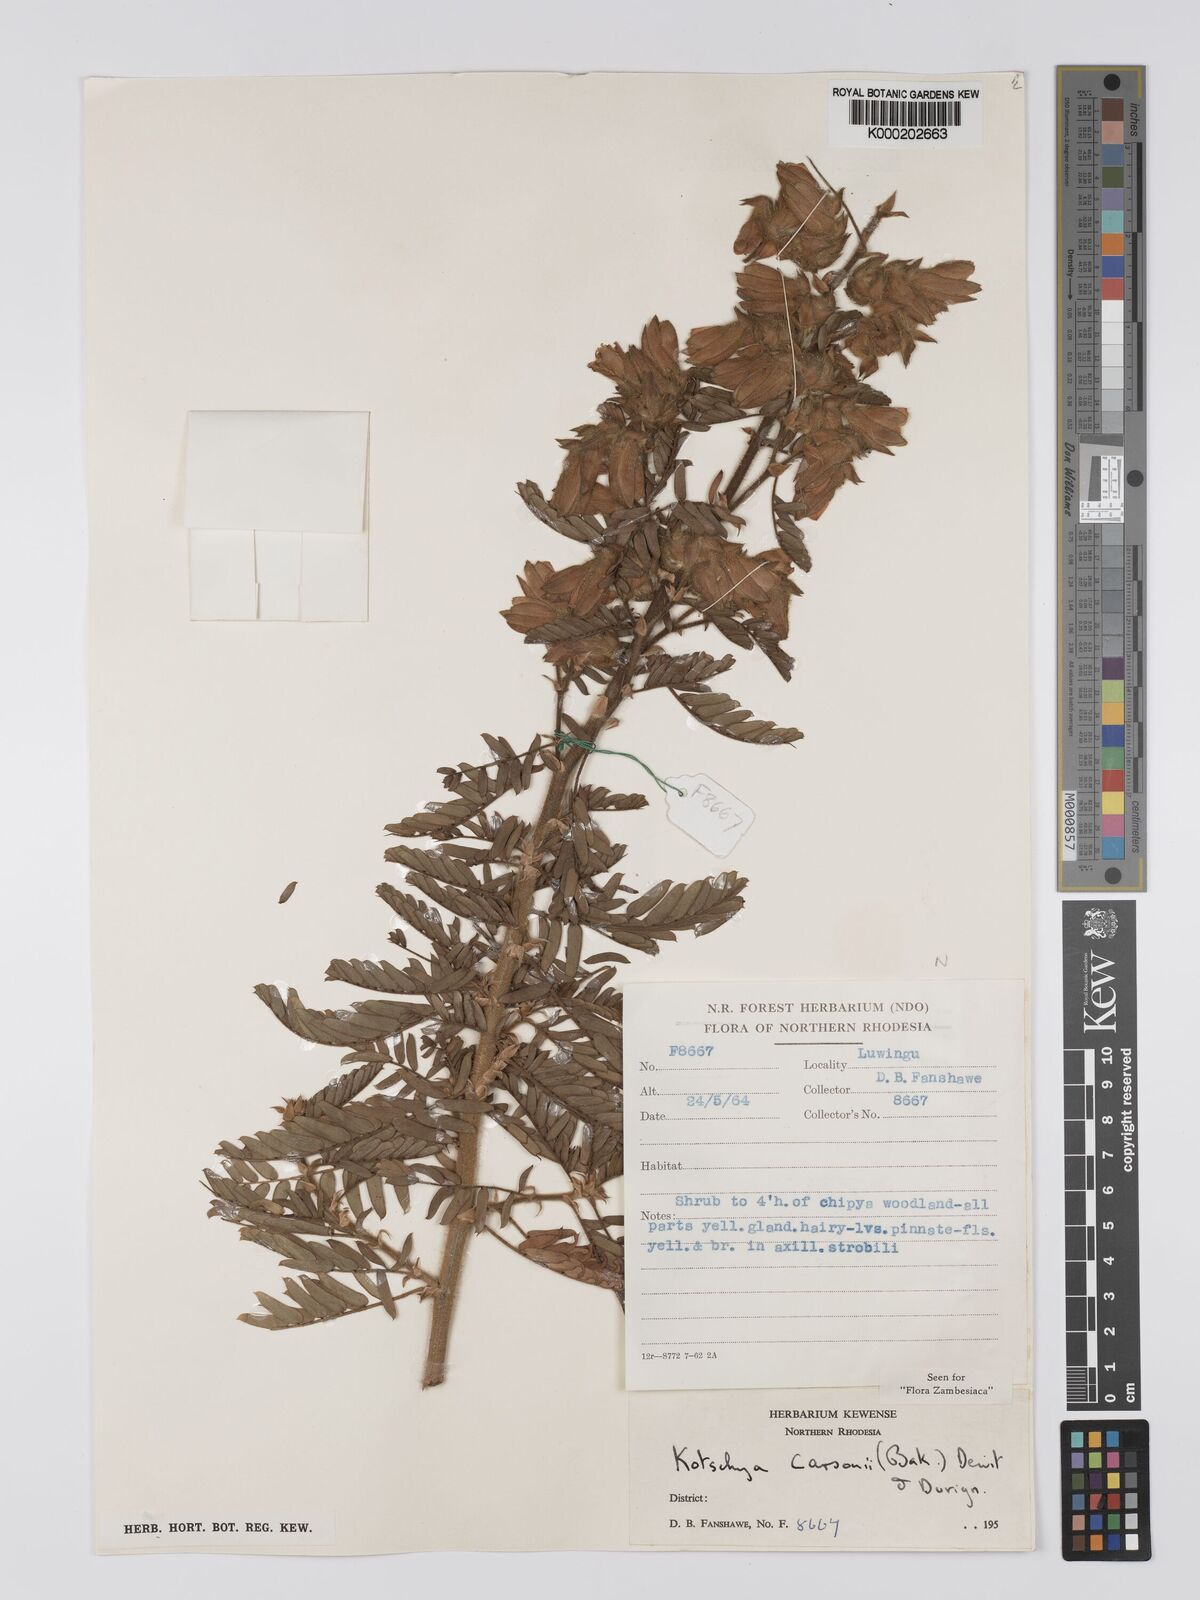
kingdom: Plantae
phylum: Tracheophyta
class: Magnoliopsida
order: Fabales
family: Fabaceae
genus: Kotschya
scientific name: Kotschya carsonii
